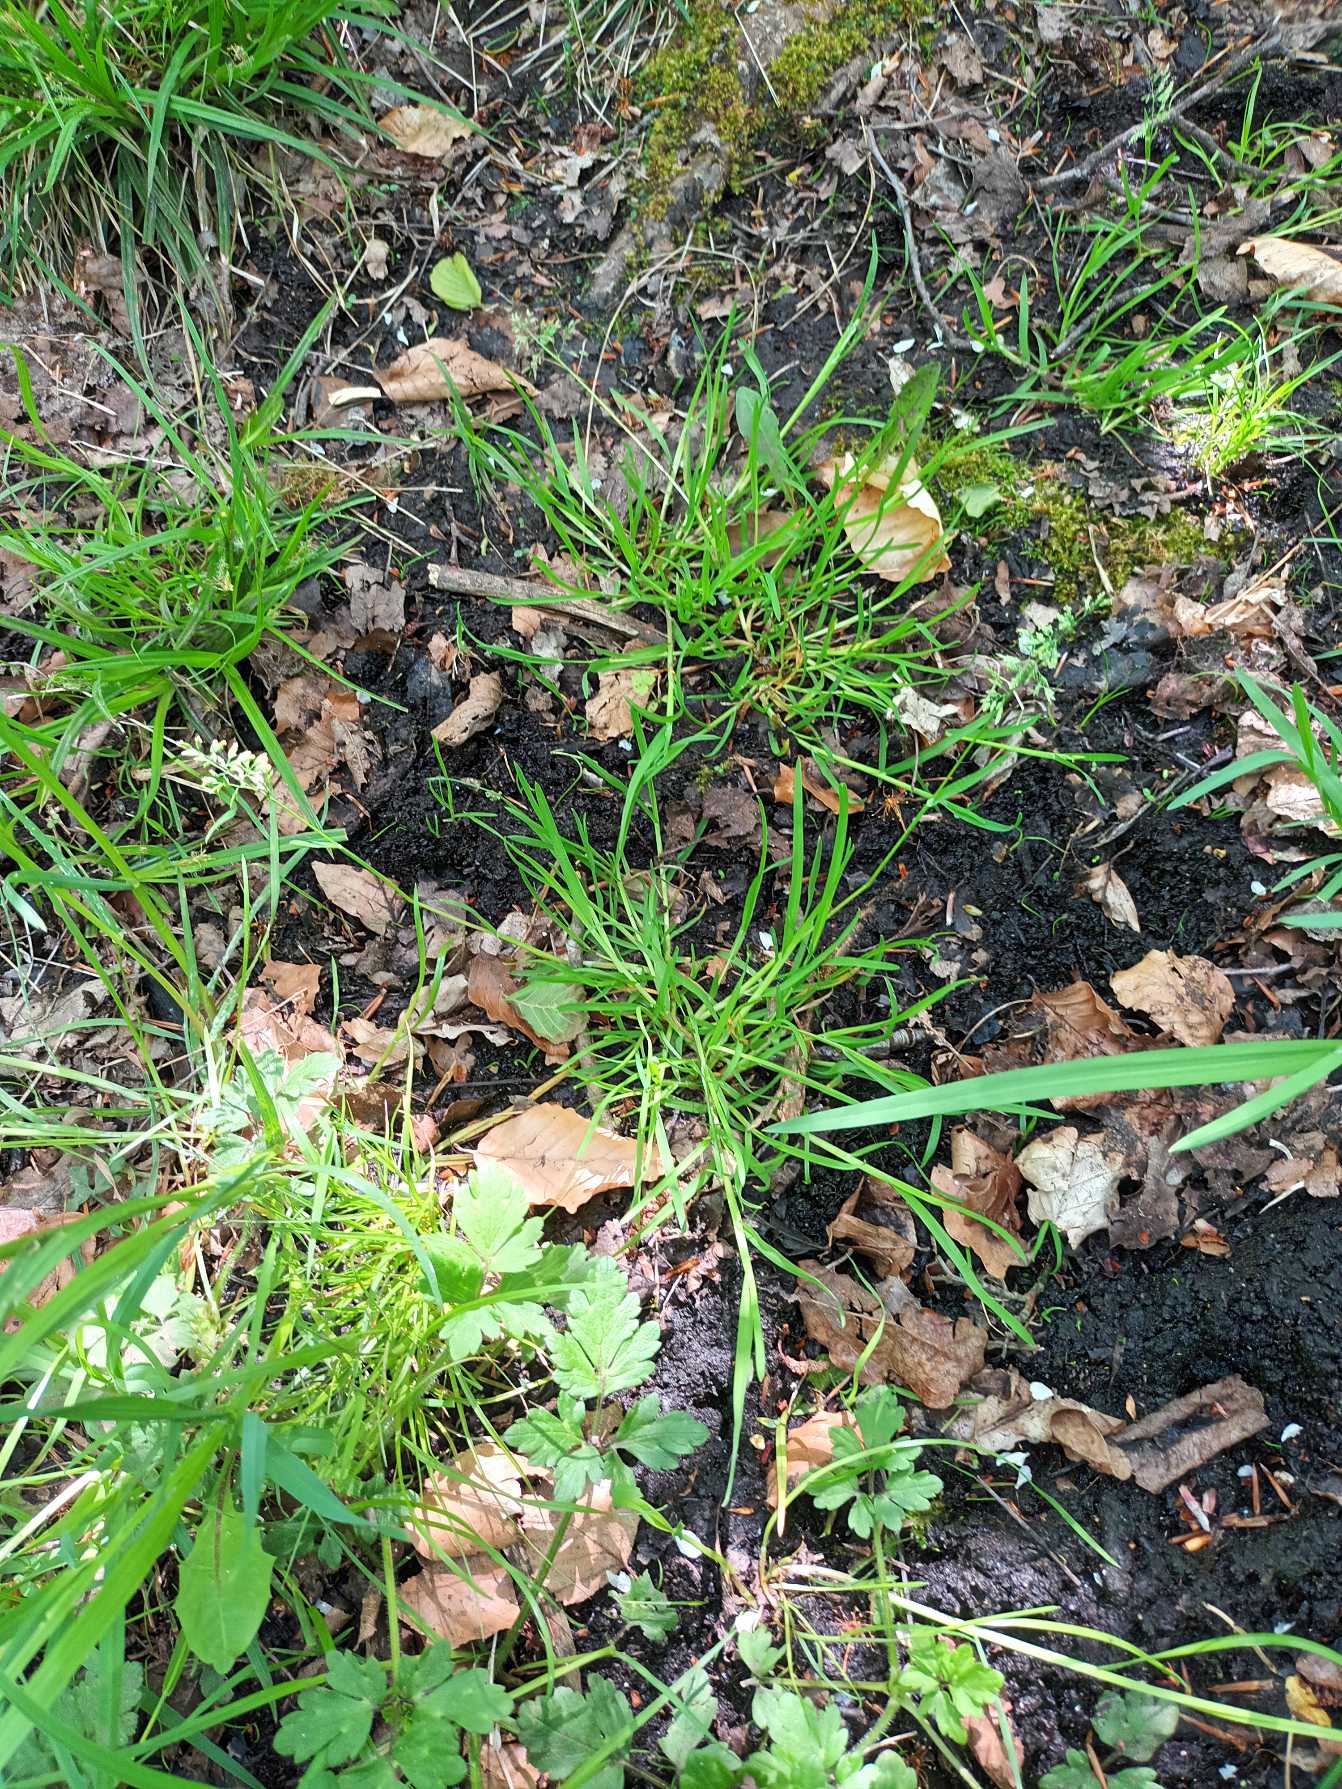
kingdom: Plantae
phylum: Tracheophyta
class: Liliopsida
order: Poales
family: Poaceae
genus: Poa
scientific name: Poa annua
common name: Enårig rapgræs
